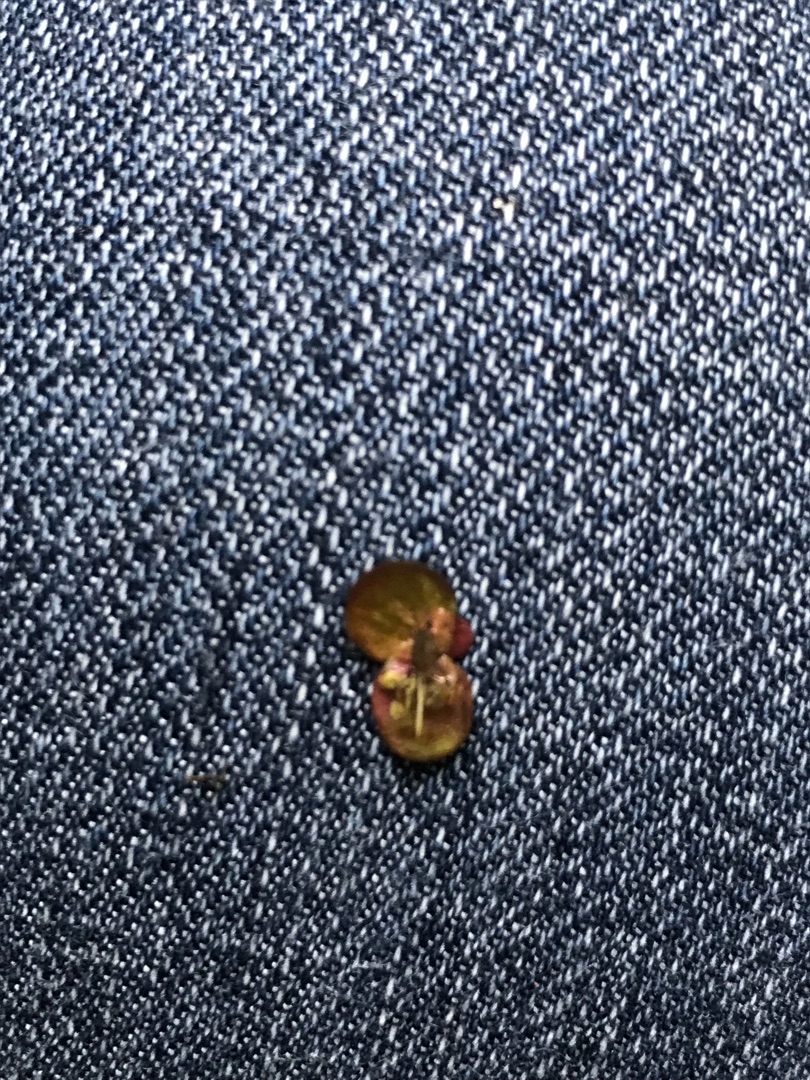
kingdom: Plantae
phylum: Tracheophyta
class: Liliopsida
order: Alismatales
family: Araceae
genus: Spirodela
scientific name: Spirodela polyrhiza
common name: Stor andemad
